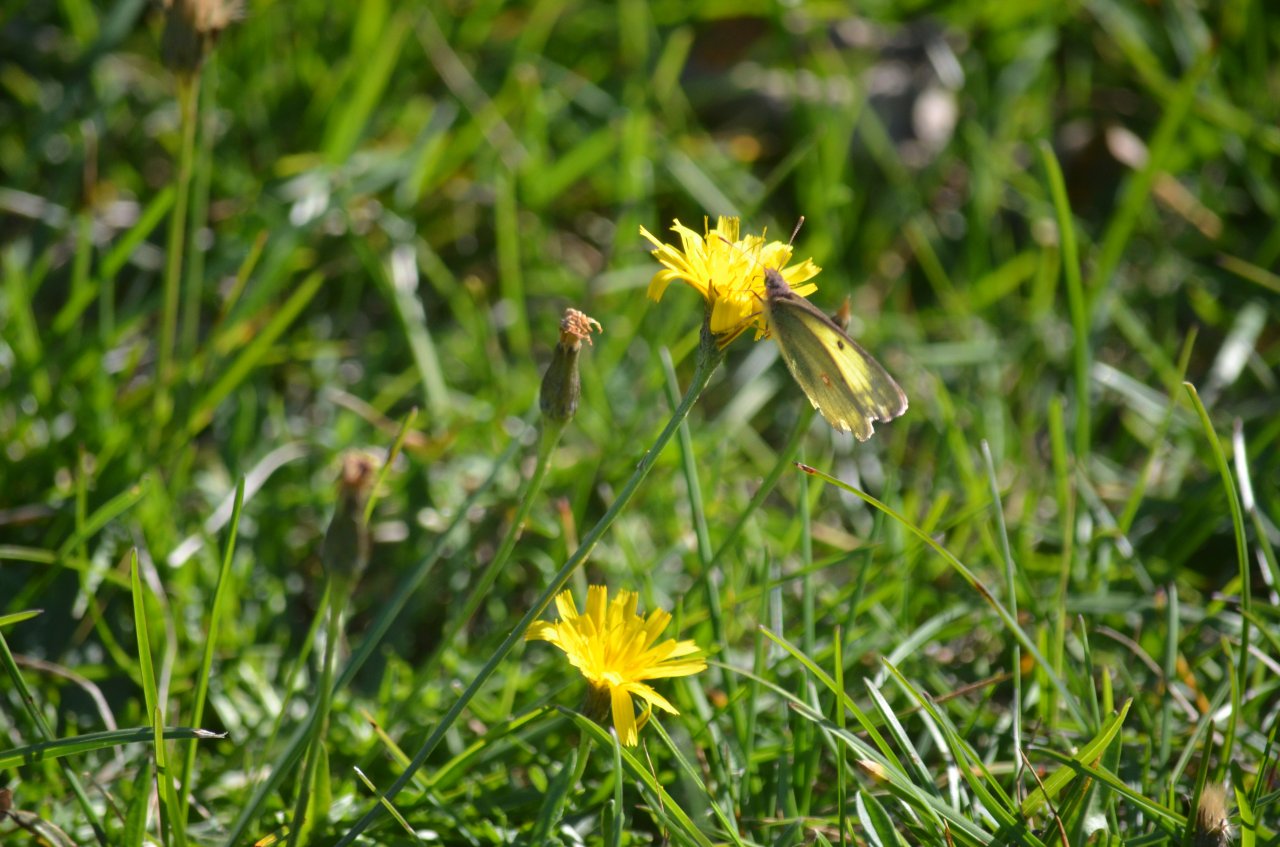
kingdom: Animalia
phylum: Arthropoda
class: Insecta
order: Lepidoptera
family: Pieridae
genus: Colias
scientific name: Colias philodice
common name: Clouded Sulphur
